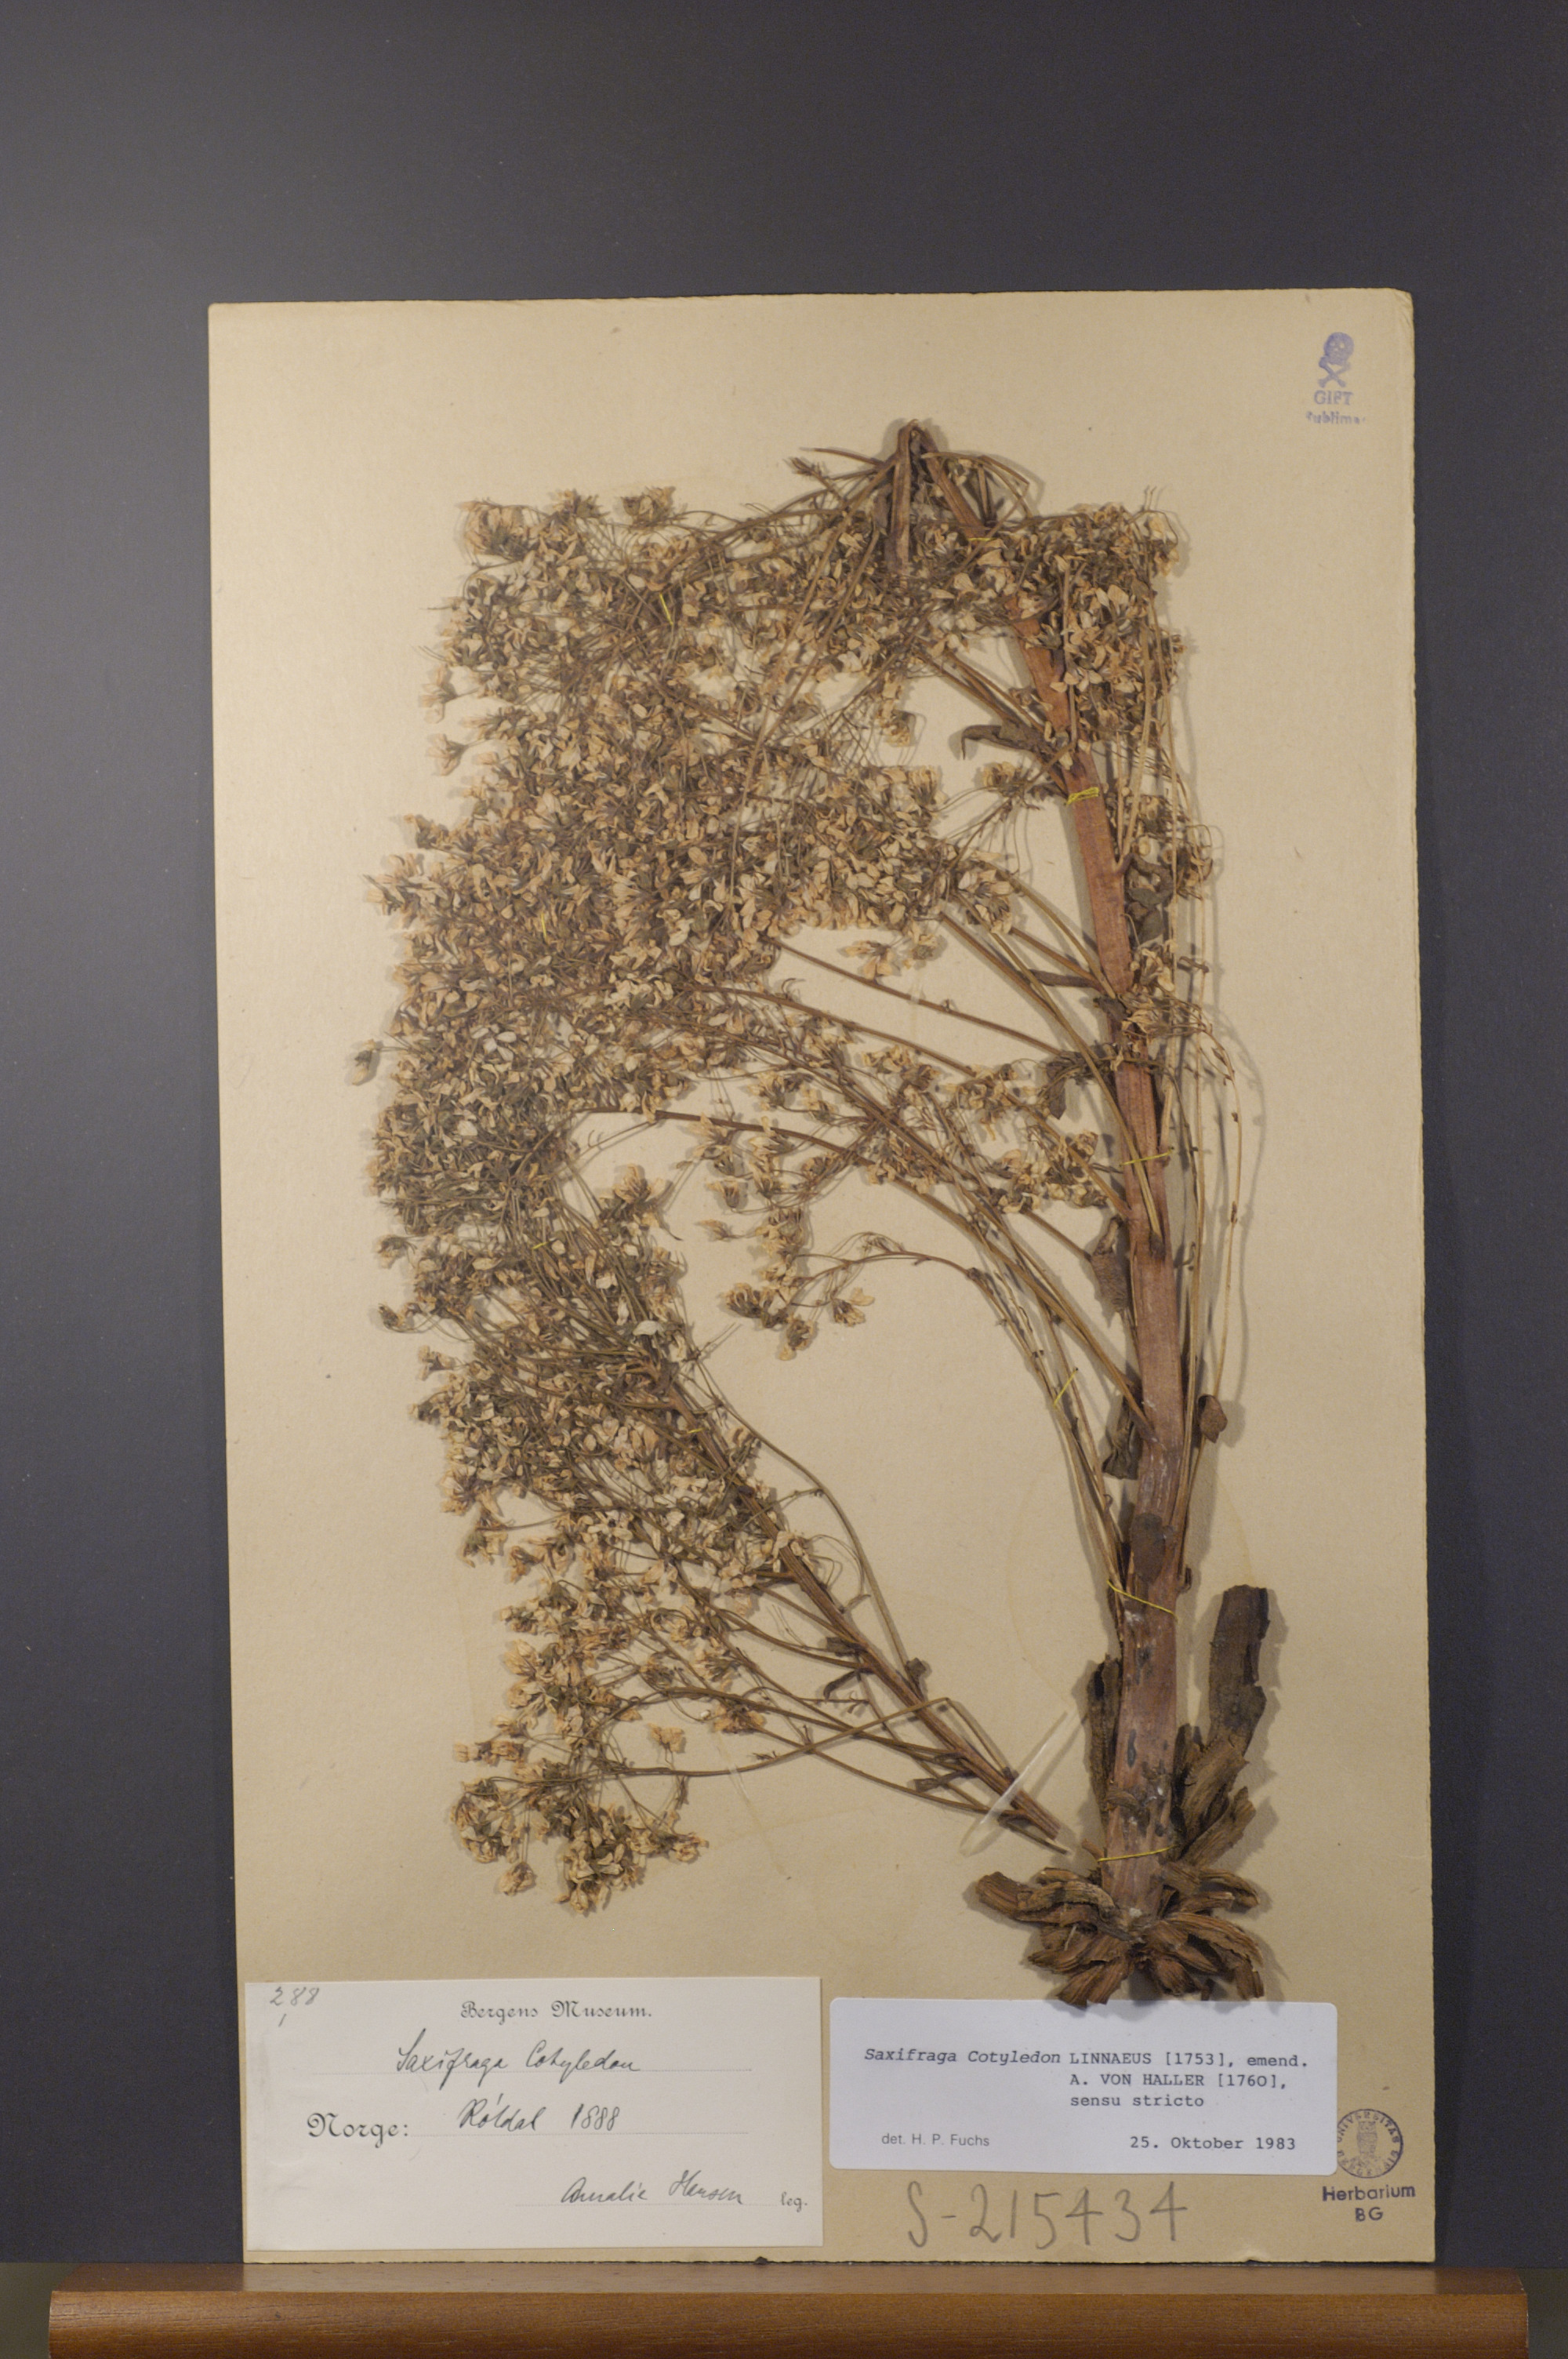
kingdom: Plantae
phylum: Tracheophyta
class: Magnoliopsida
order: Saxifragales
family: Saxifragaceae
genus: Saxifraga
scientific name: Saxifraga cotyledon
